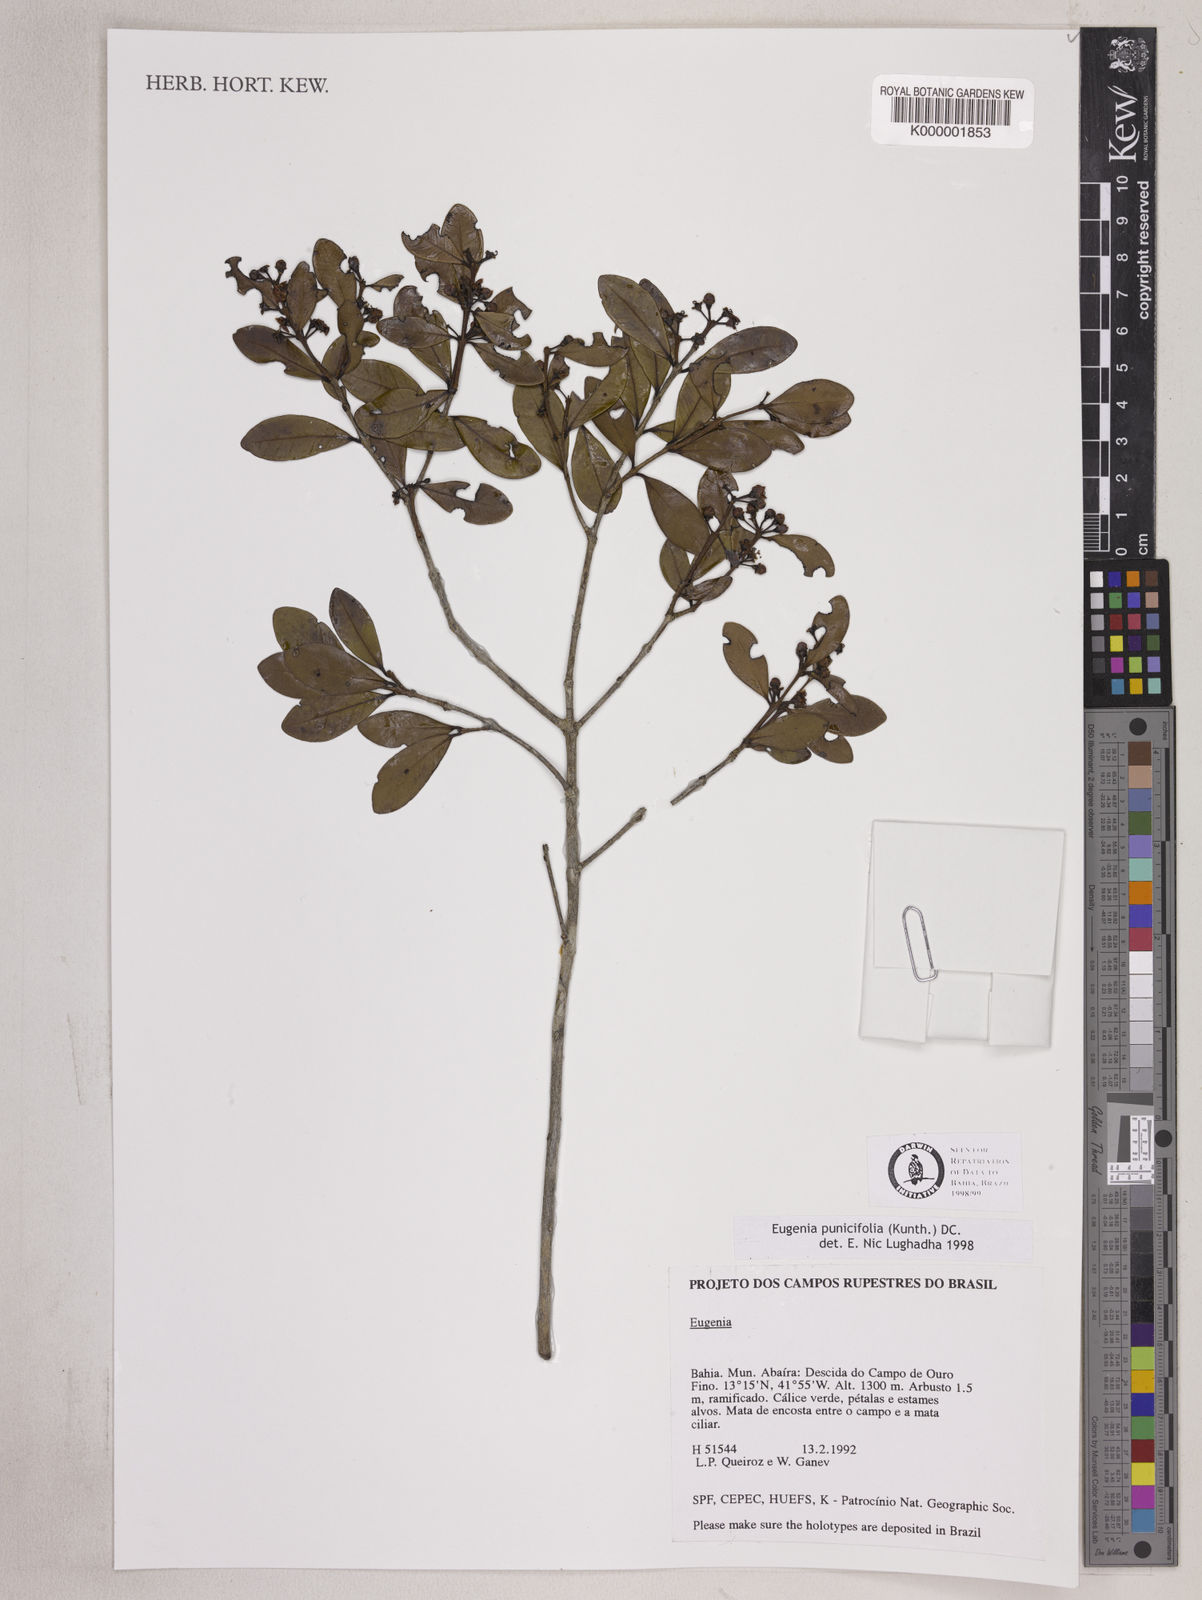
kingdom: Plantae
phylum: Tracheophyta
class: Magnoliopsida
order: Myrtales
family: Myrtaceae
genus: Eugenia
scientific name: Eugenia punicifolia
